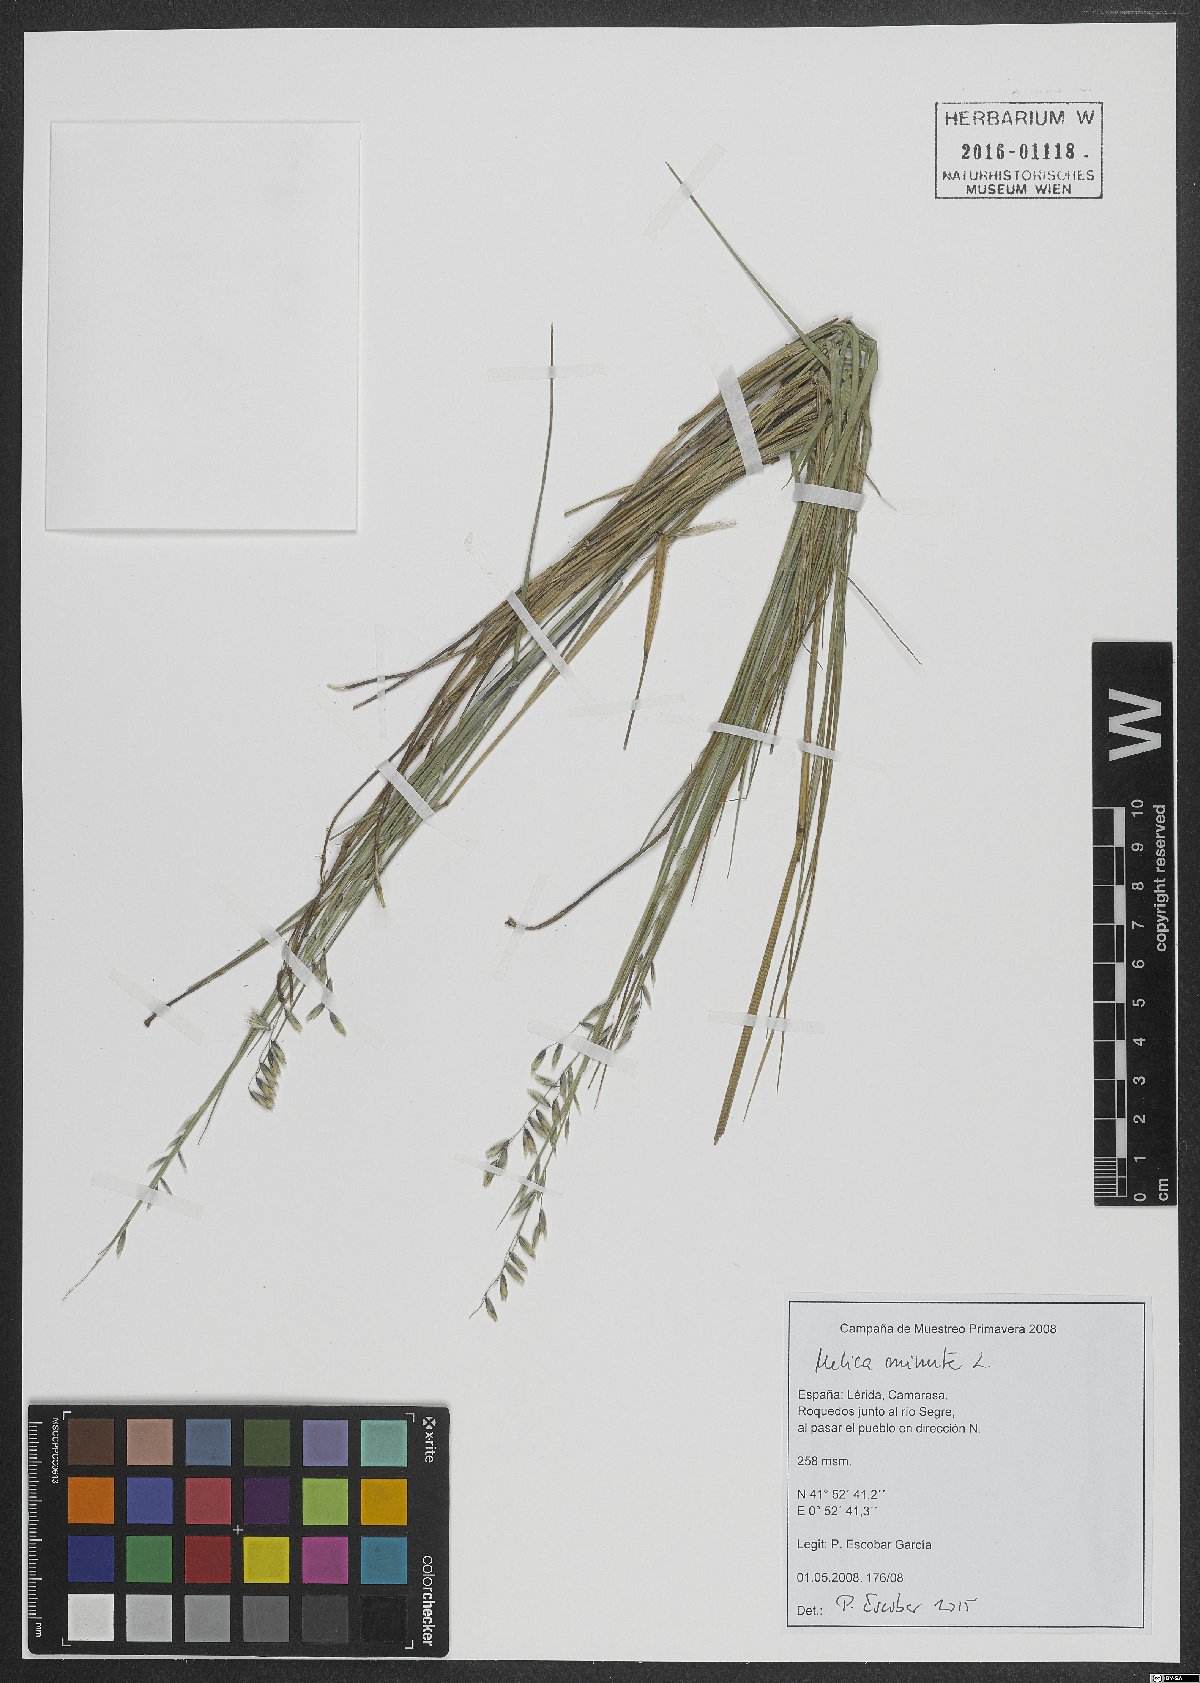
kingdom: Plantae
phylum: Tracheophyta
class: Liliopsida
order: Poales
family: Poaceae
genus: Melica
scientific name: Melica minuta
